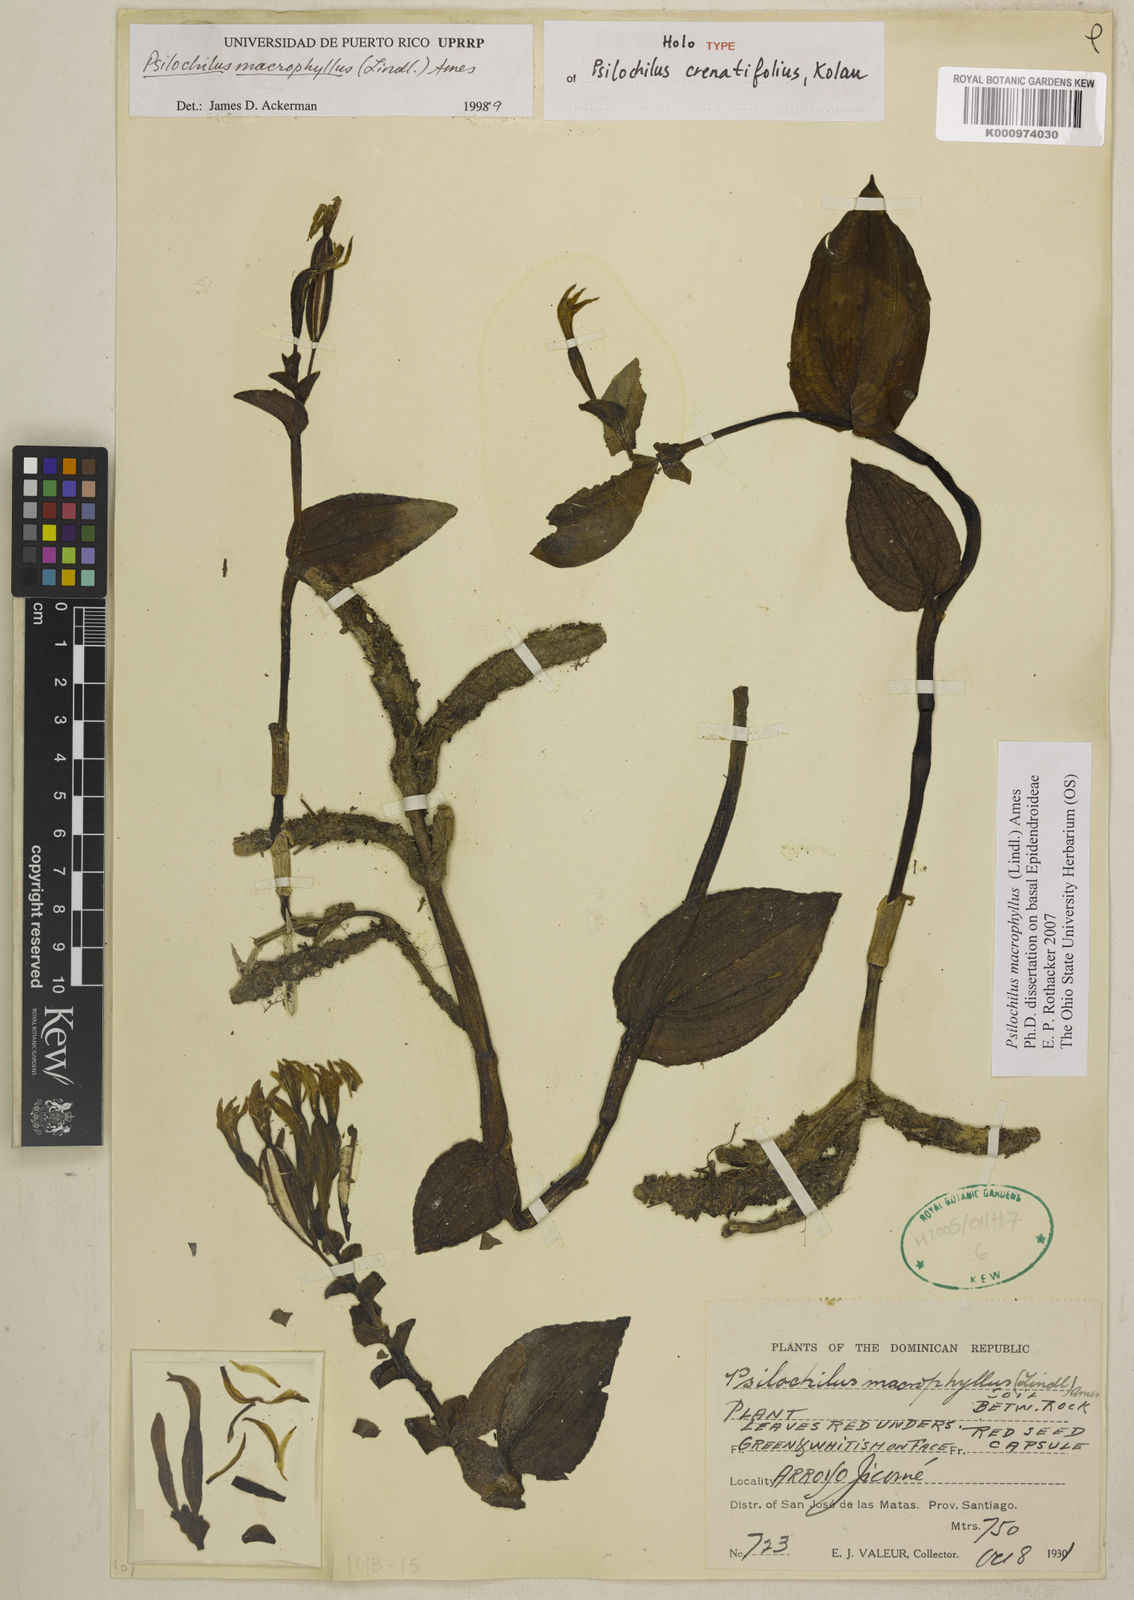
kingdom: Plantae
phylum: Tracheophyta
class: Liliopsida
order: Asparagales
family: Orchidaceae
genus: Psilochilus
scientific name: Psilochilus macrophyllus
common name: Raggedlip orchid
